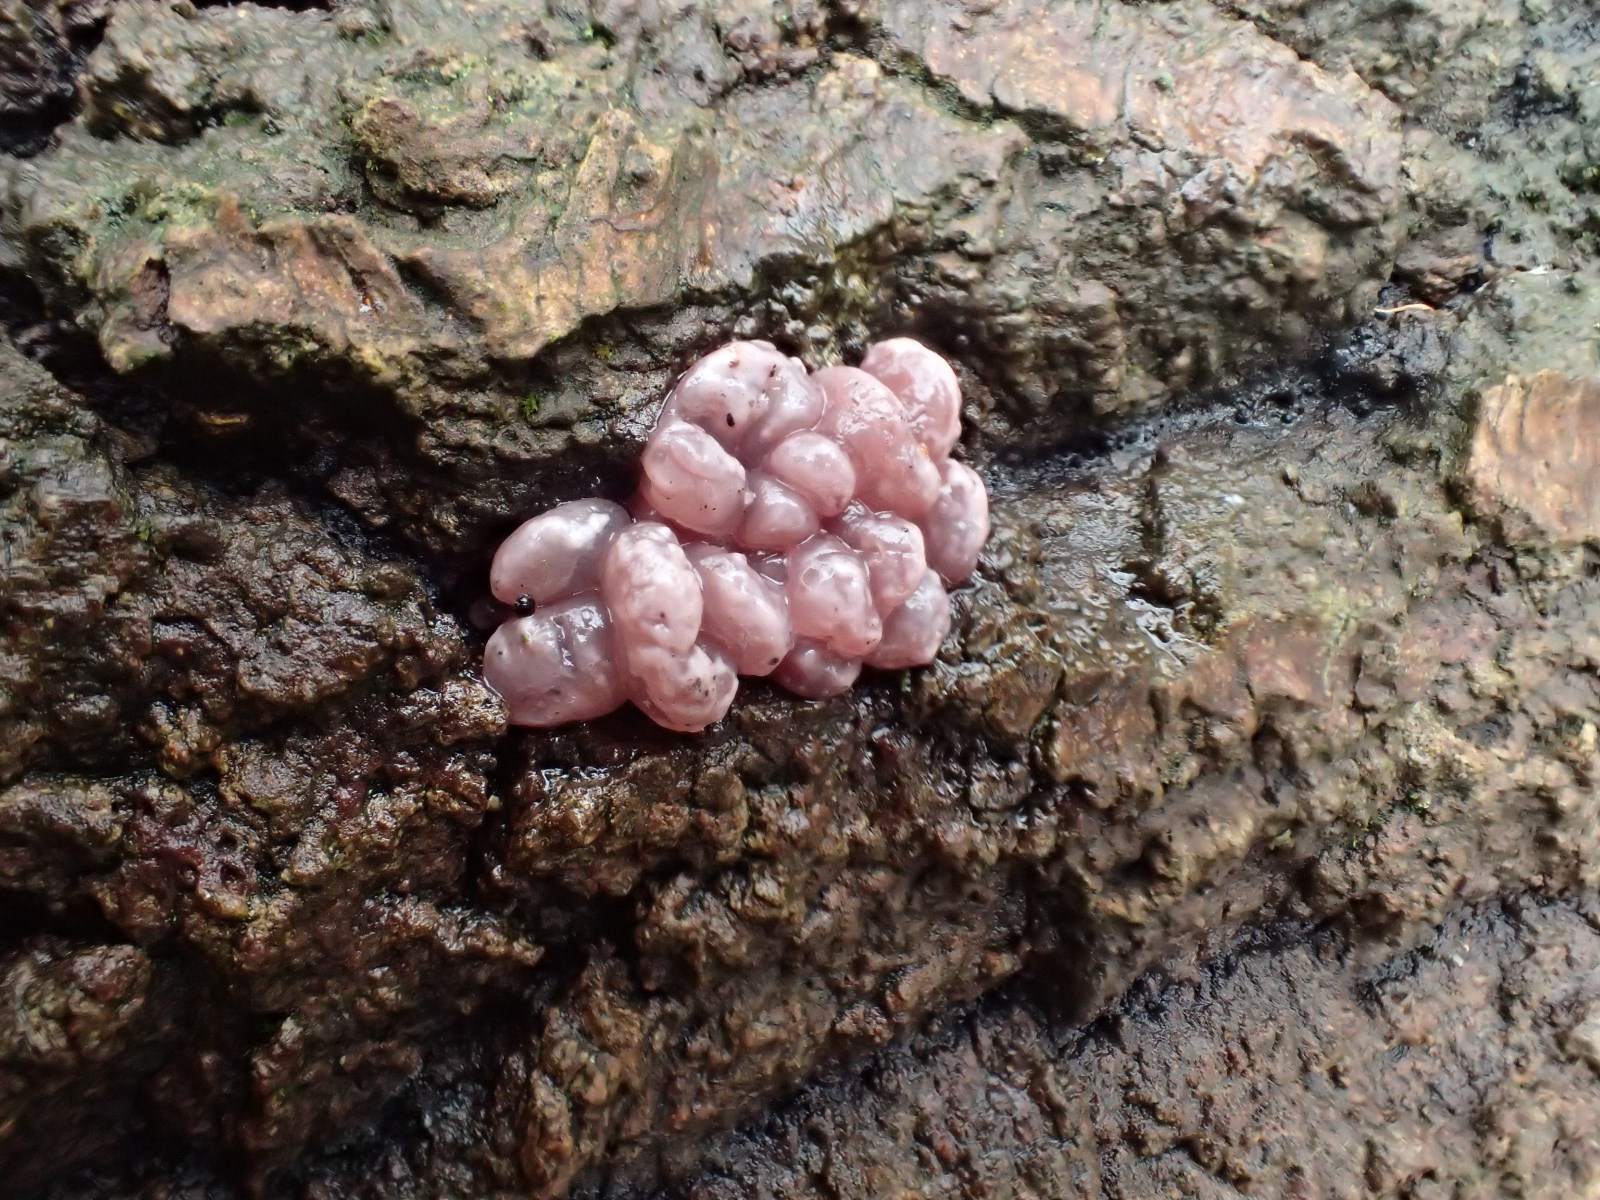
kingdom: Fungi
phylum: Ascomycota
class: Leotiomycetes
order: Helotiales
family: Gelatinodiscaceae
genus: Ascocoryne
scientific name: Ascocoryne sarcoides
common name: rødlilla sejskive
